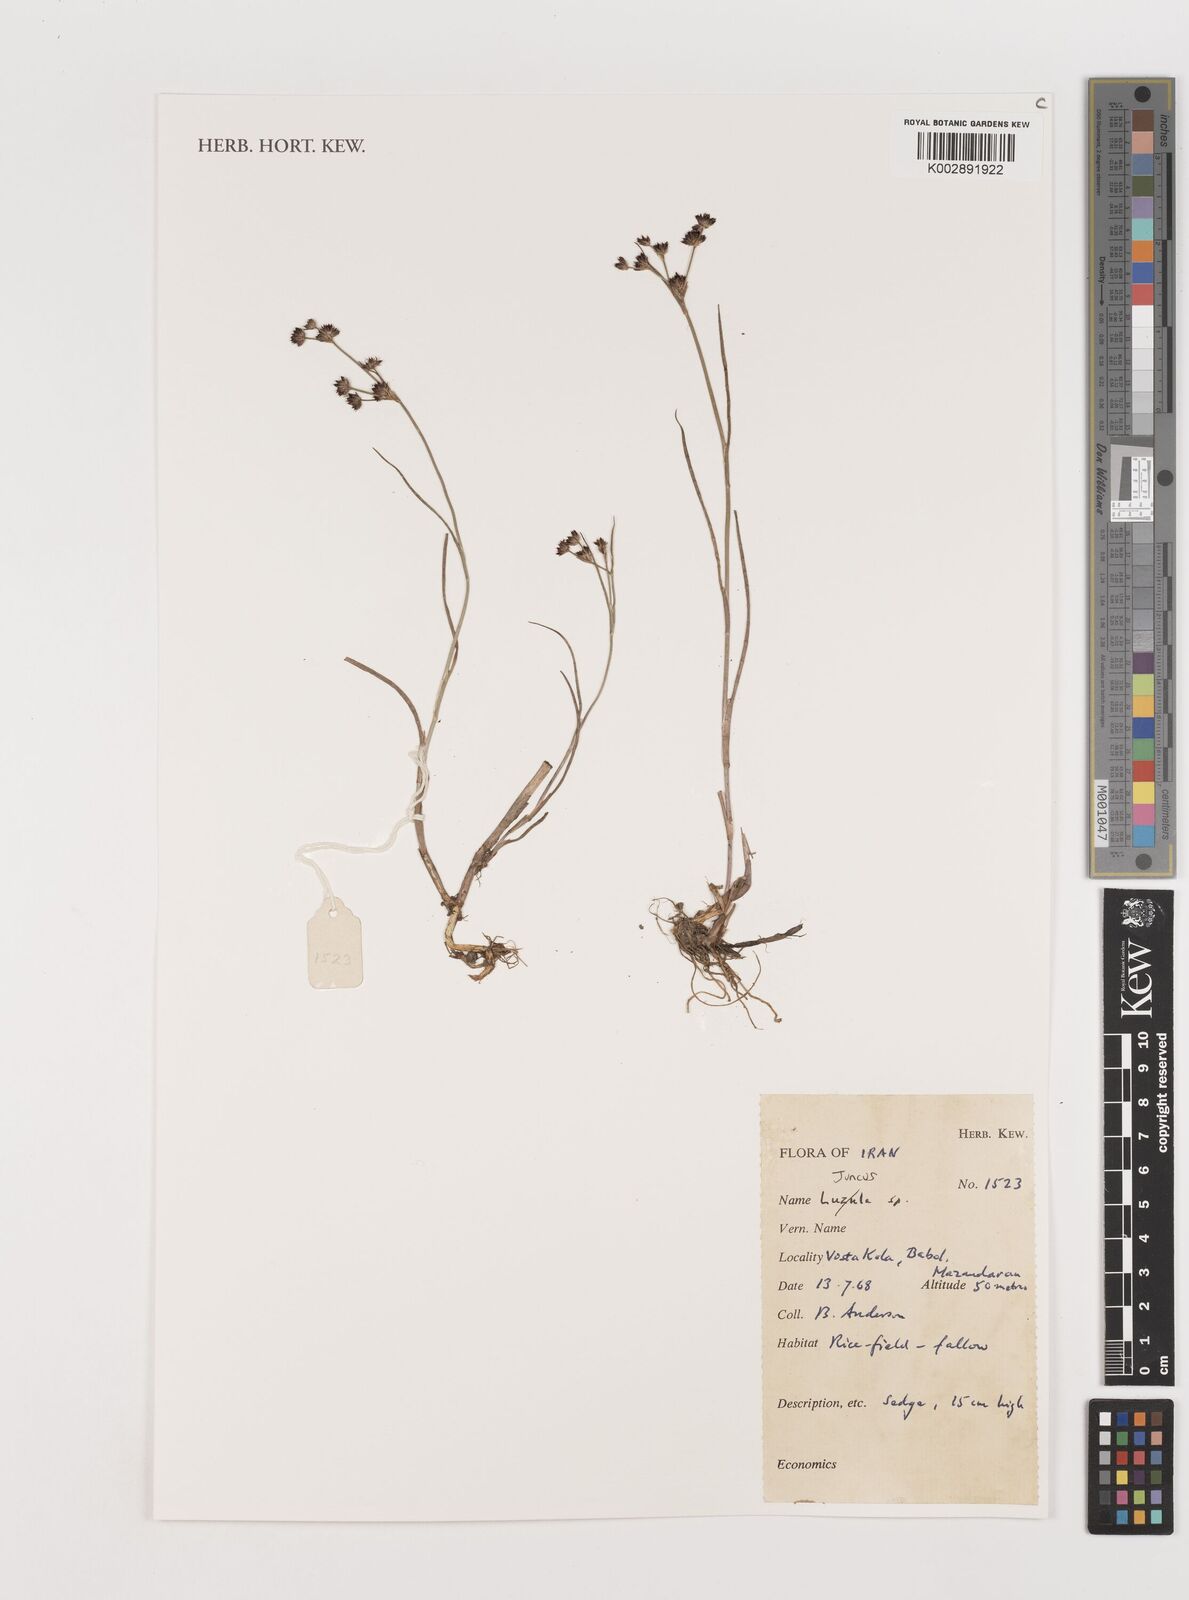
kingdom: Plantae
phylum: Tracheophyta
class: Liliopsida
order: Poales
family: Juncaceae
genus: Juncus
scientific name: Juncus
